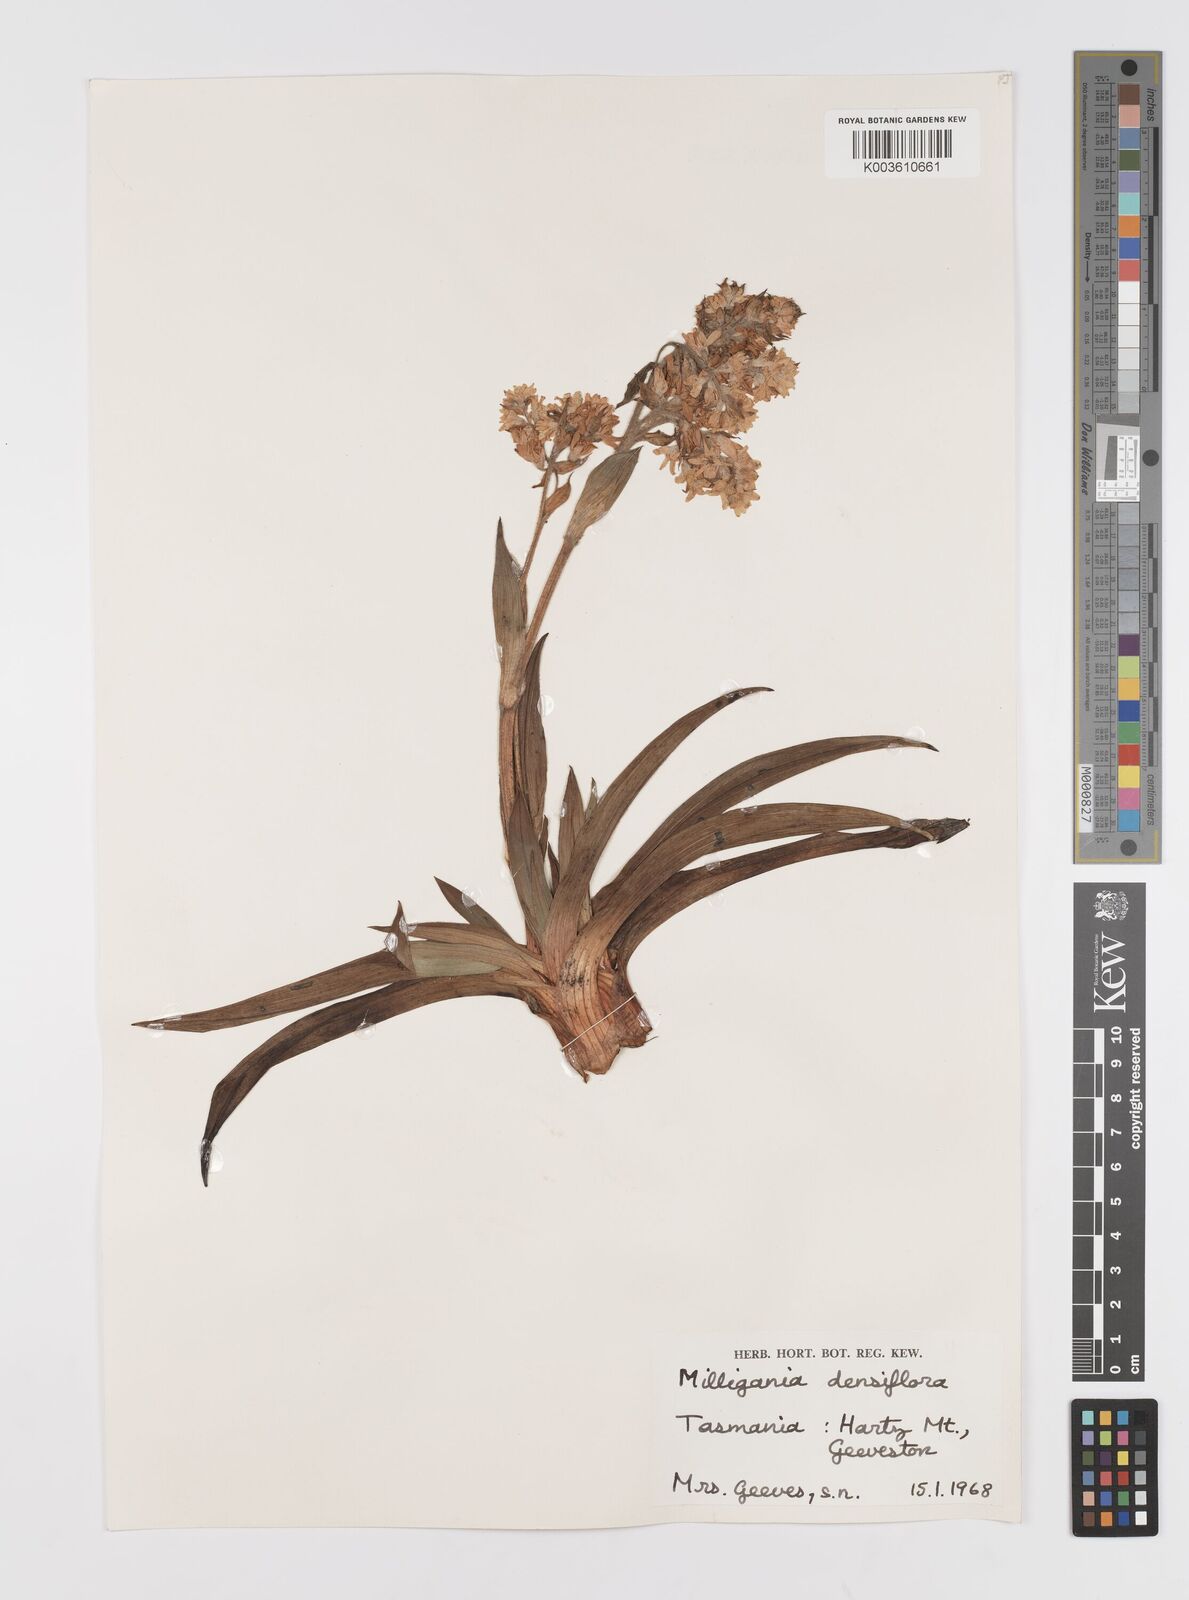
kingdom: Plantae
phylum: Tracheophyta
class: Liliopsida
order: Asparagales
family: Asteliaceae
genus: Milligania
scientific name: Milligania densiflora
